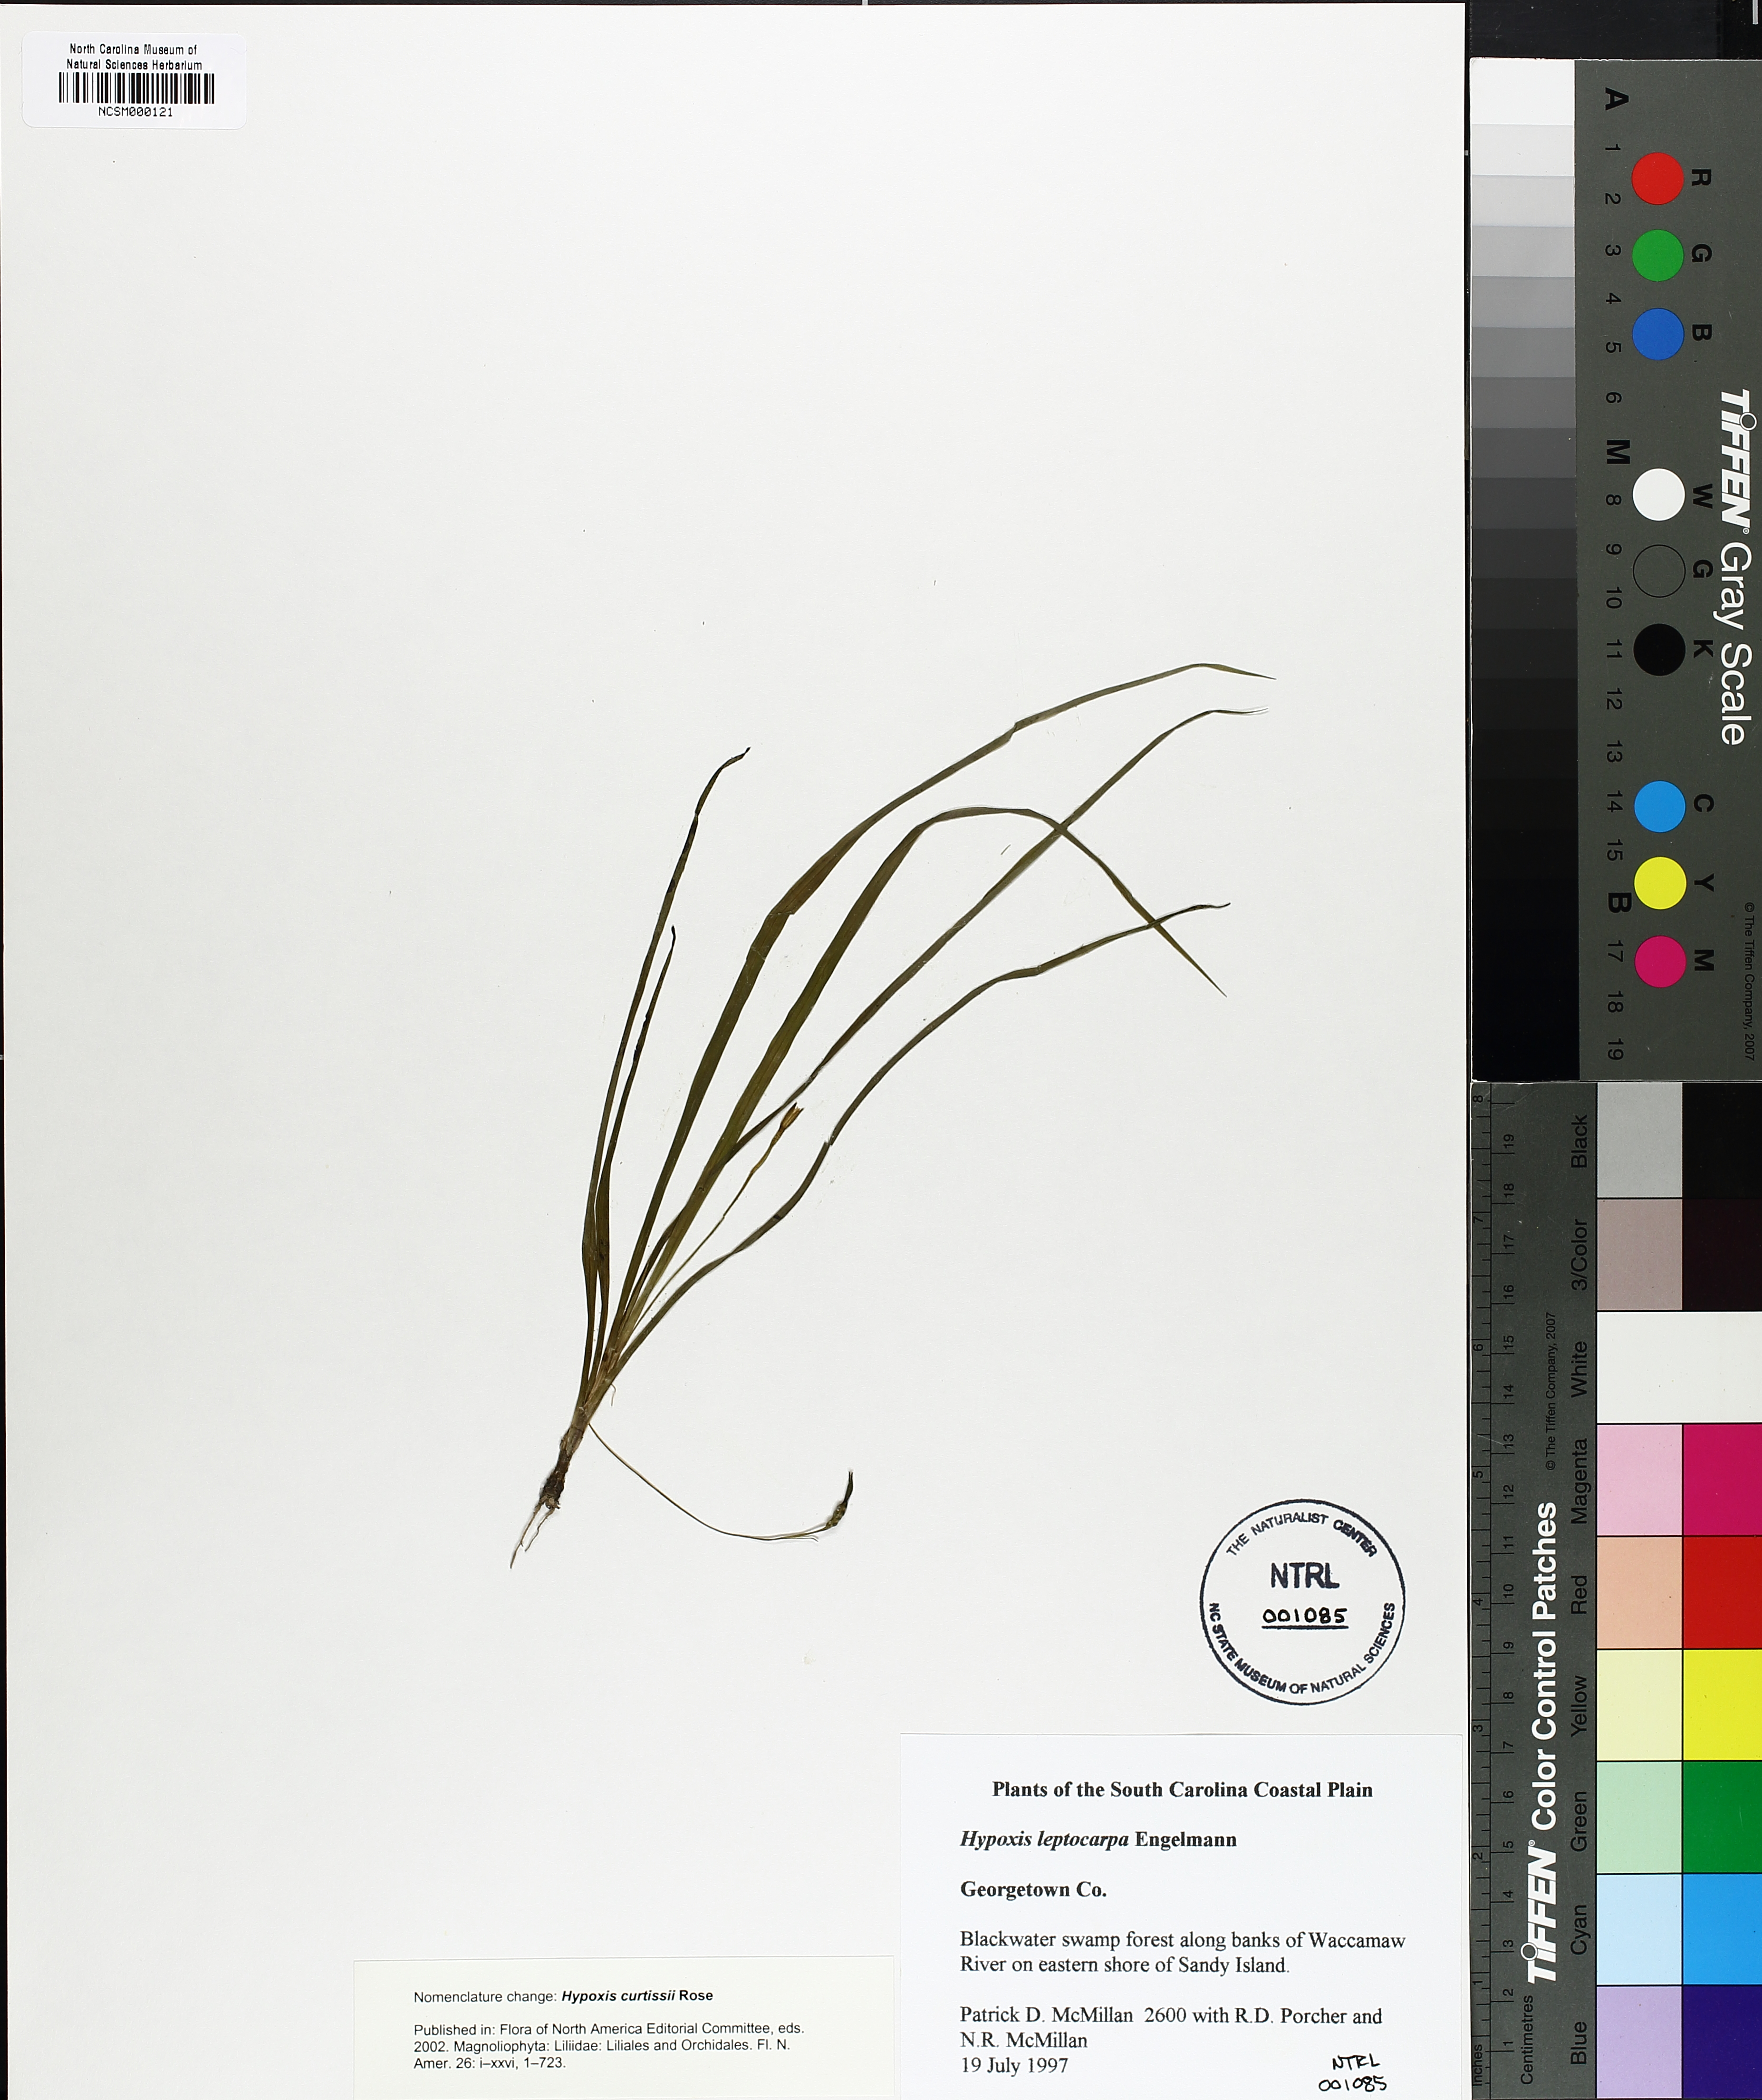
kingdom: Plantae
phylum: Tracheophyta
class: Liliopsida
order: Asparagales
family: Hypoxidaceae
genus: Hypoxis
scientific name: Hypoxis curtissii
